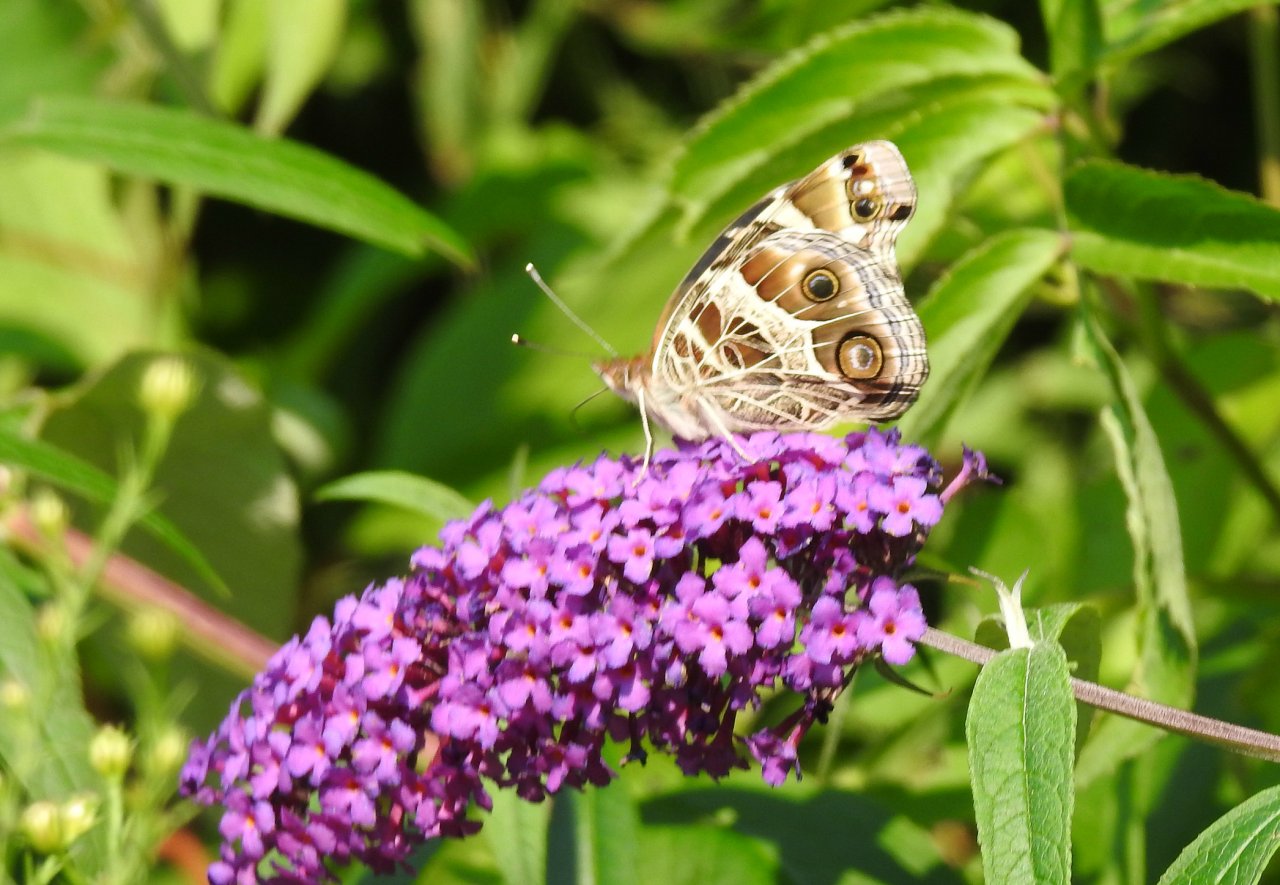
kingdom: Animalia
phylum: Arthropoda
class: Insecta
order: Lepidoptera
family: Nymphalidae
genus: Vanessa
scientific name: Vanessa virginiensis
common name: American Lady
